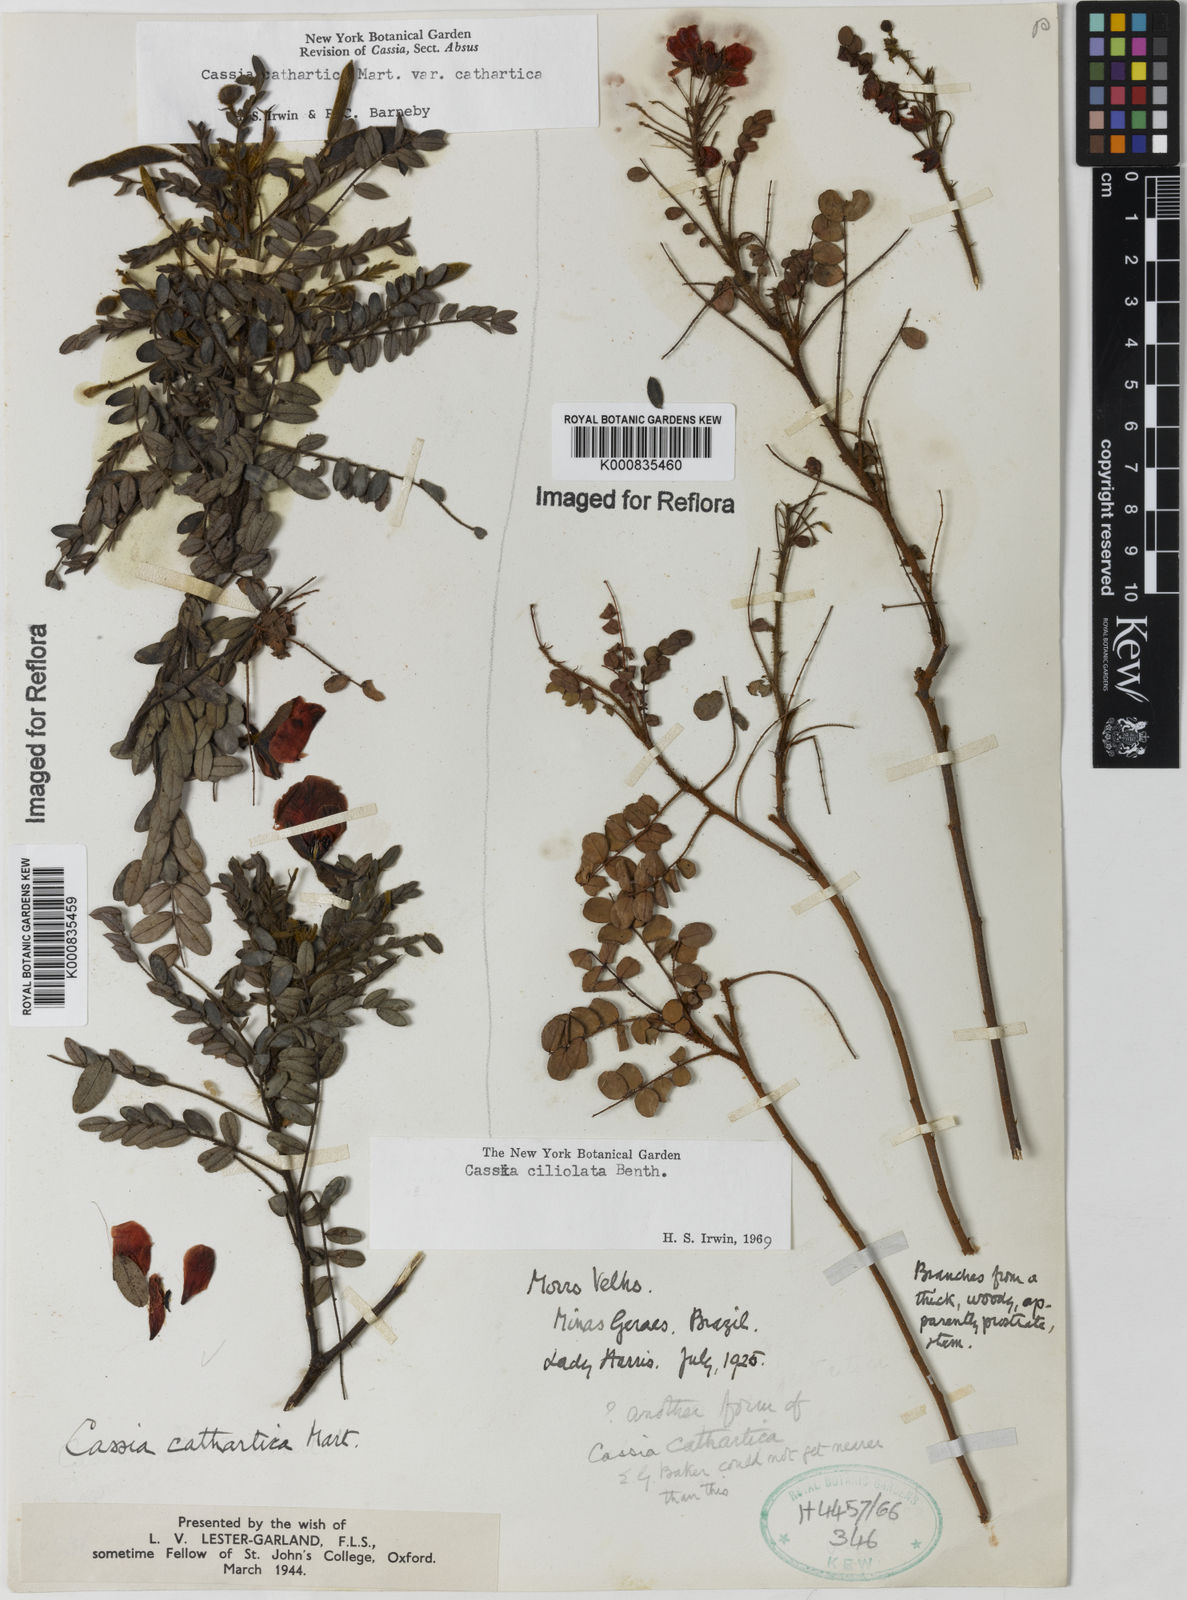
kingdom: Plantae
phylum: Tracheophyta
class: Magnoliopsida
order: Fabales
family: Fabaceae
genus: Chamaecrista
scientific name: Chamaecrista cathartica
